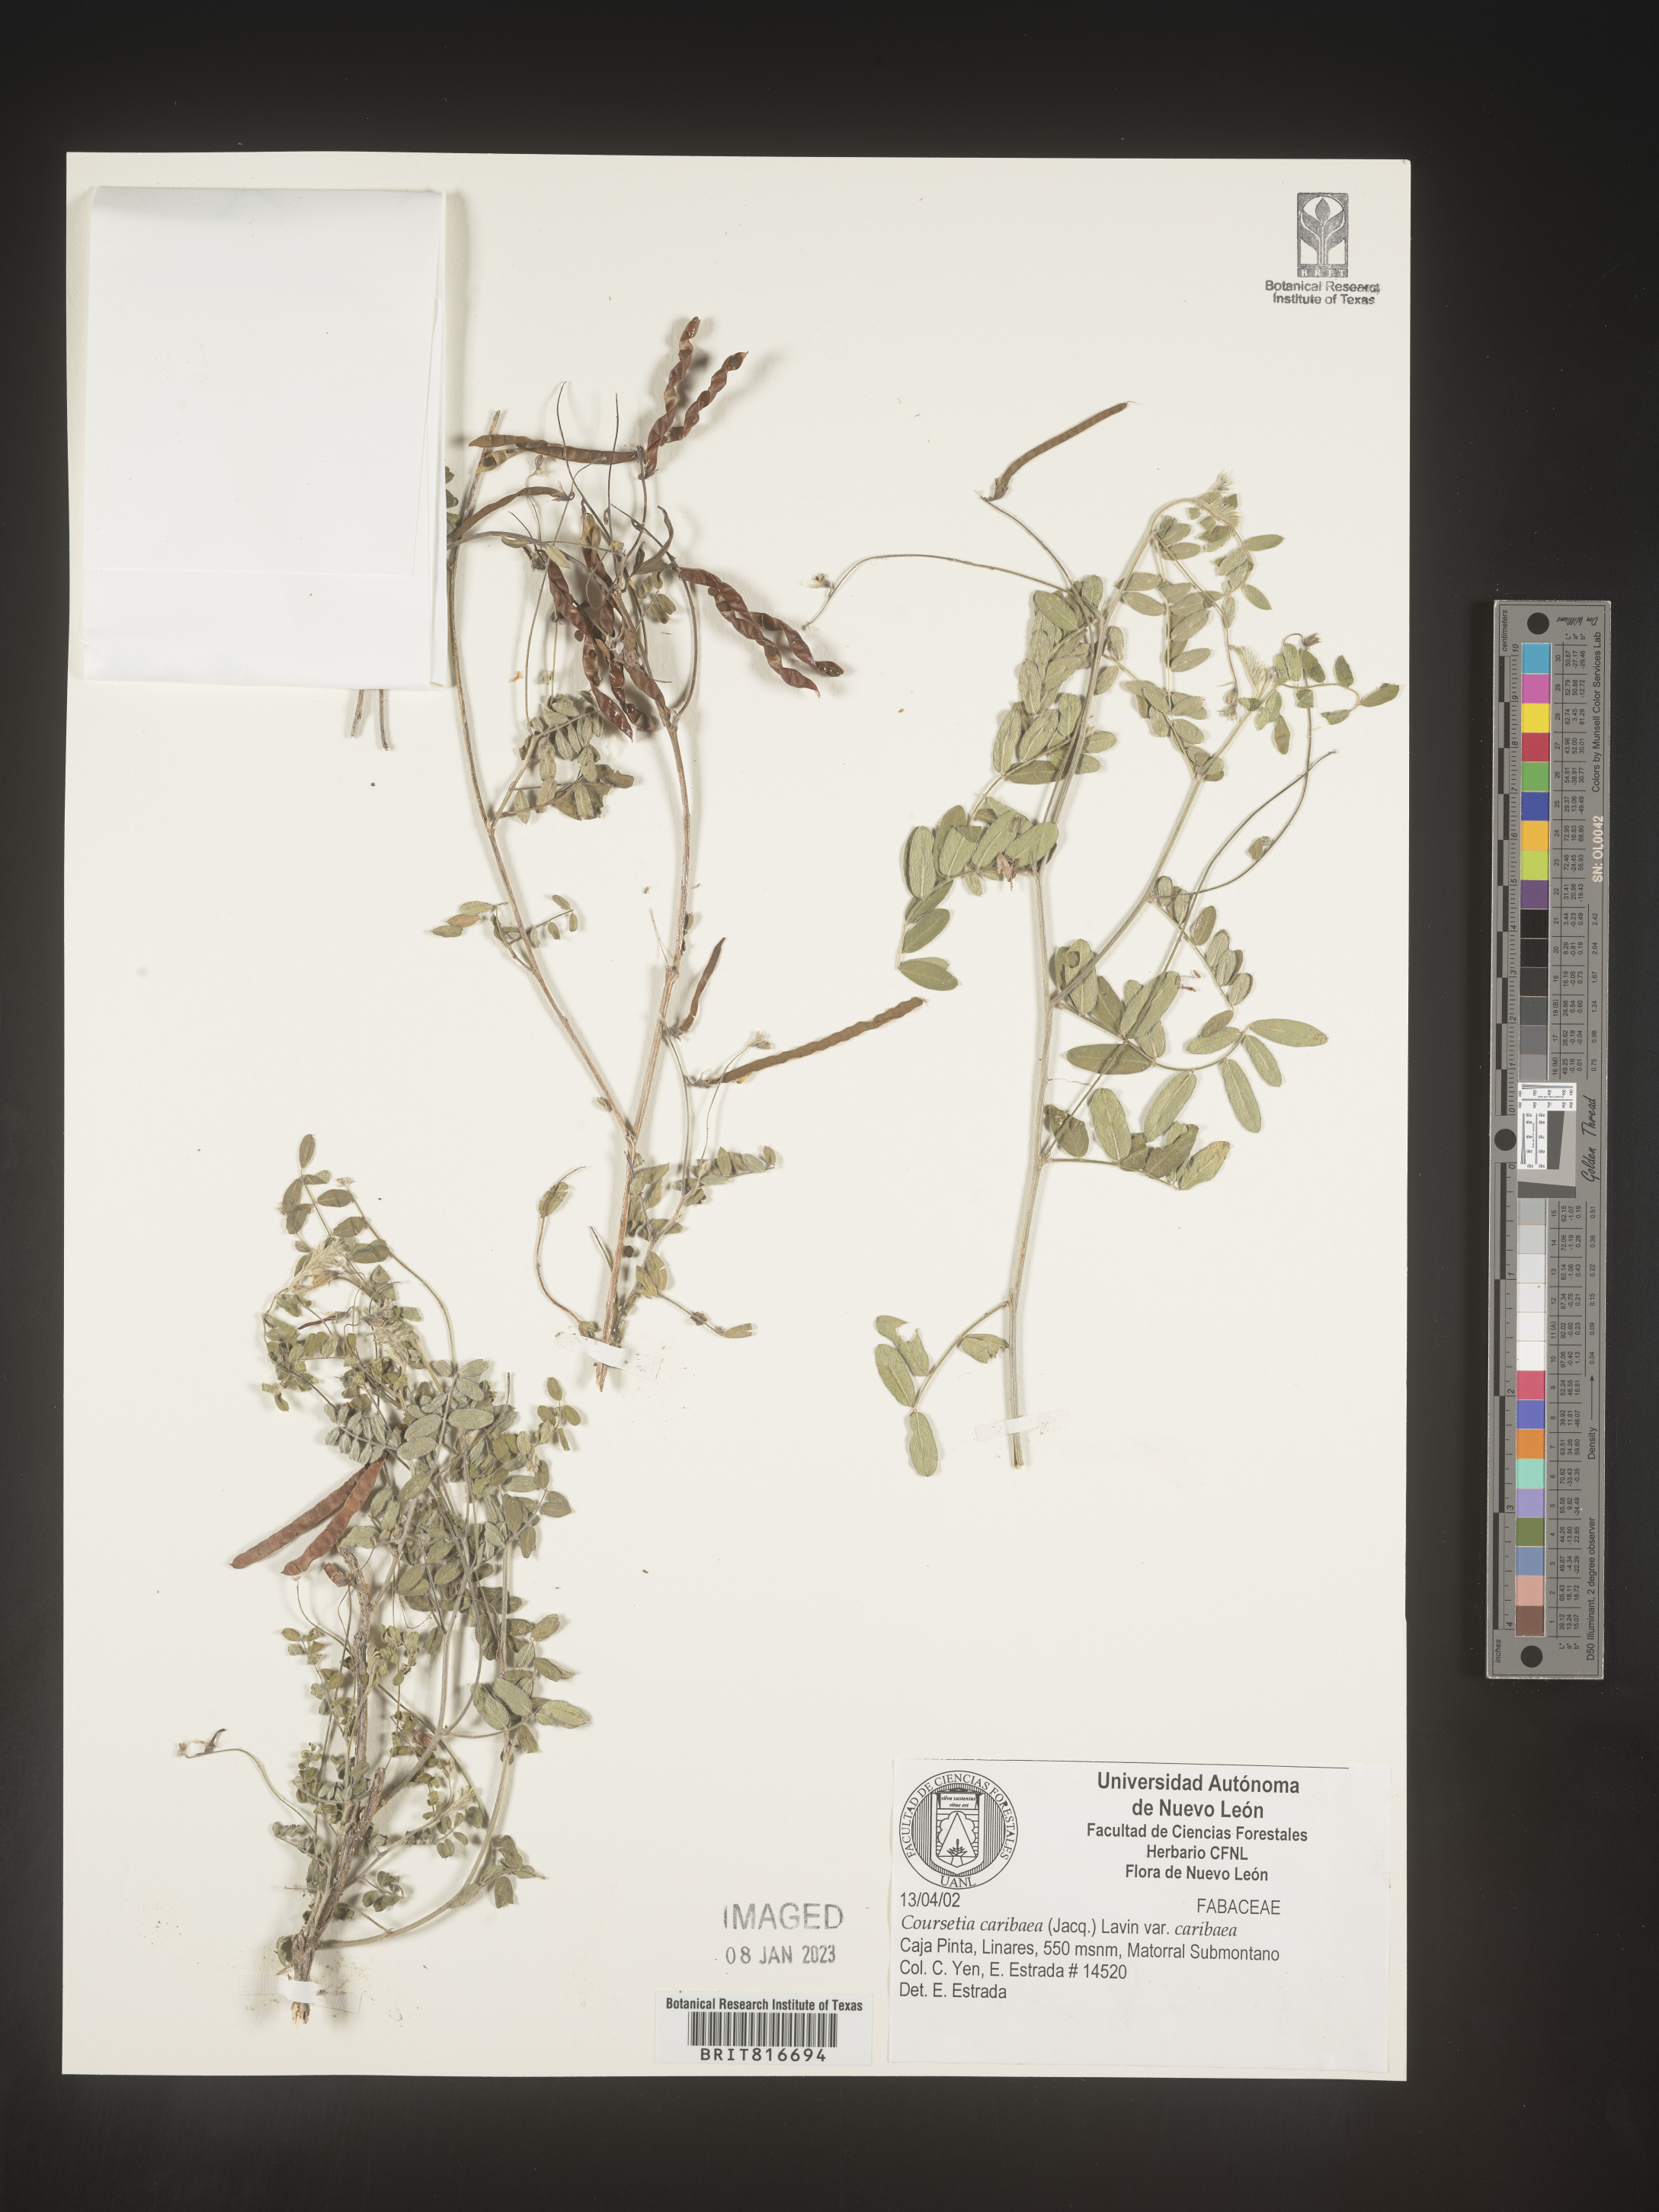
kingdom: Plantae
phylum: Tracheophyta
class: Magnoliopsida
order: Fabales
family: Fabaceae
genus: Coursetia
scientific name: Coursetia
